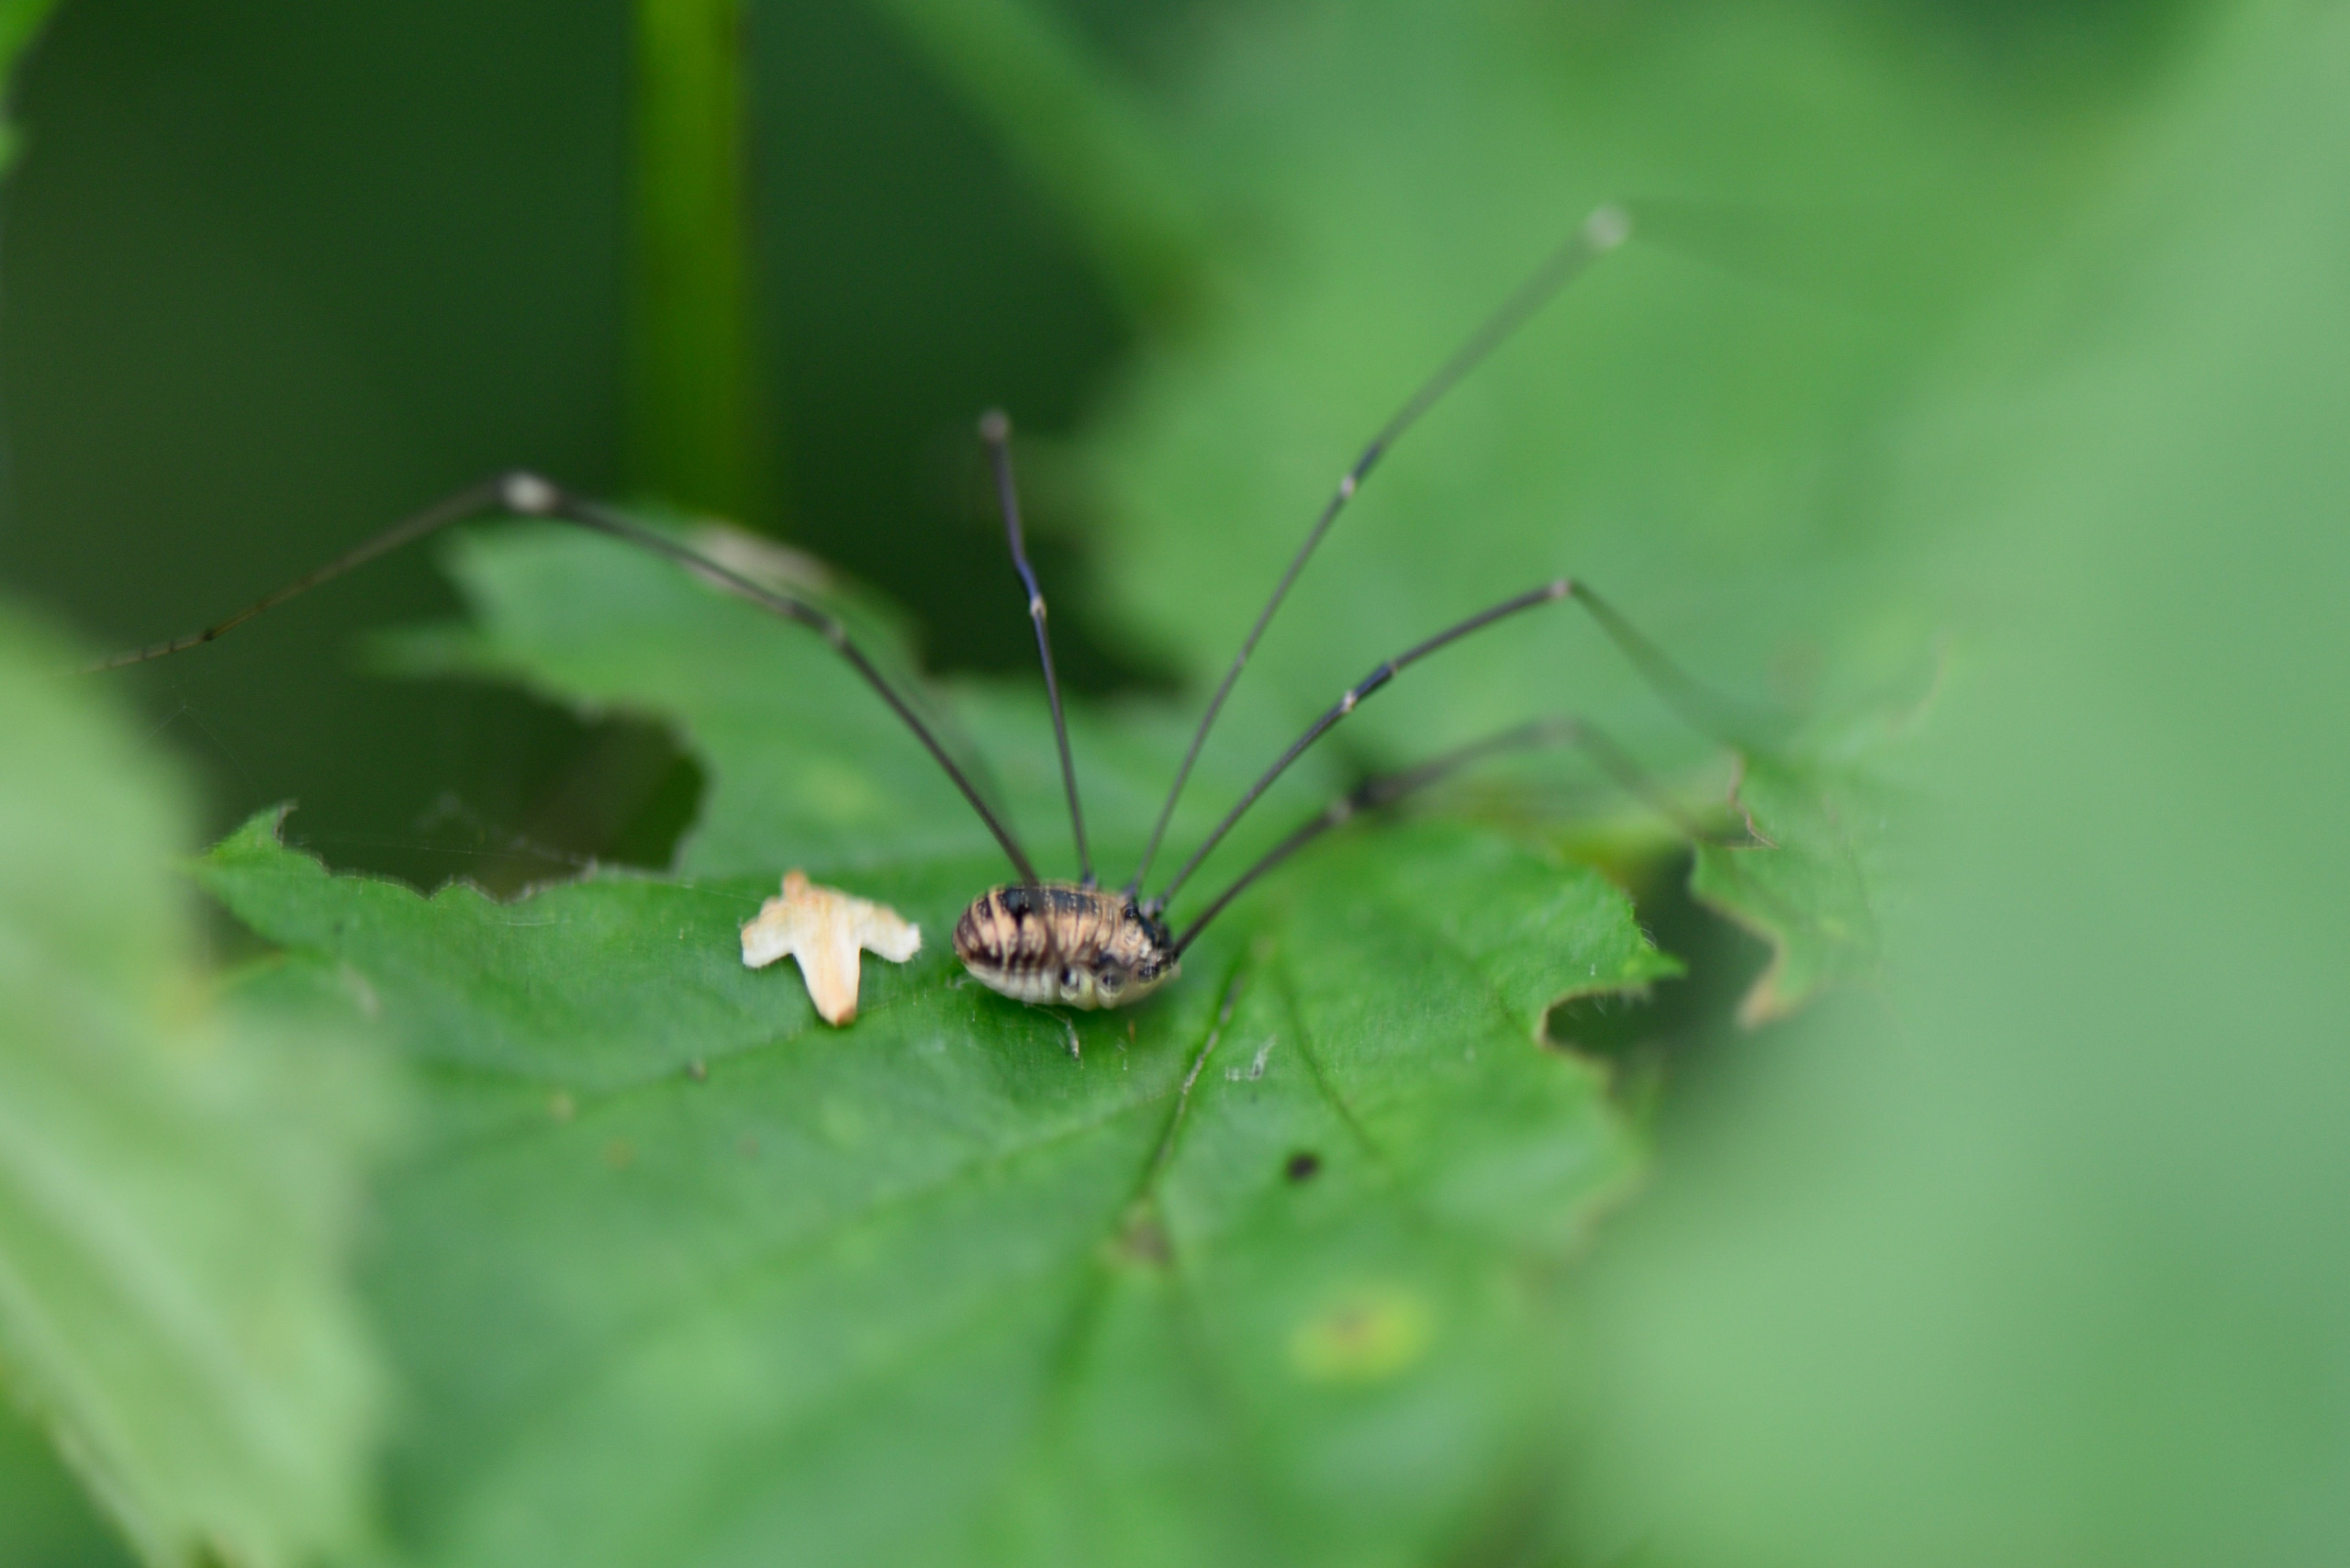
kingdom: Animalia
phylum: Arthropoda
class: Arachnida
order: Opiliones
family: Sclerosomatidae
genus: Leiobunum
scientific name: Leiobunum rotundum
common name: Rød langbensmejer
